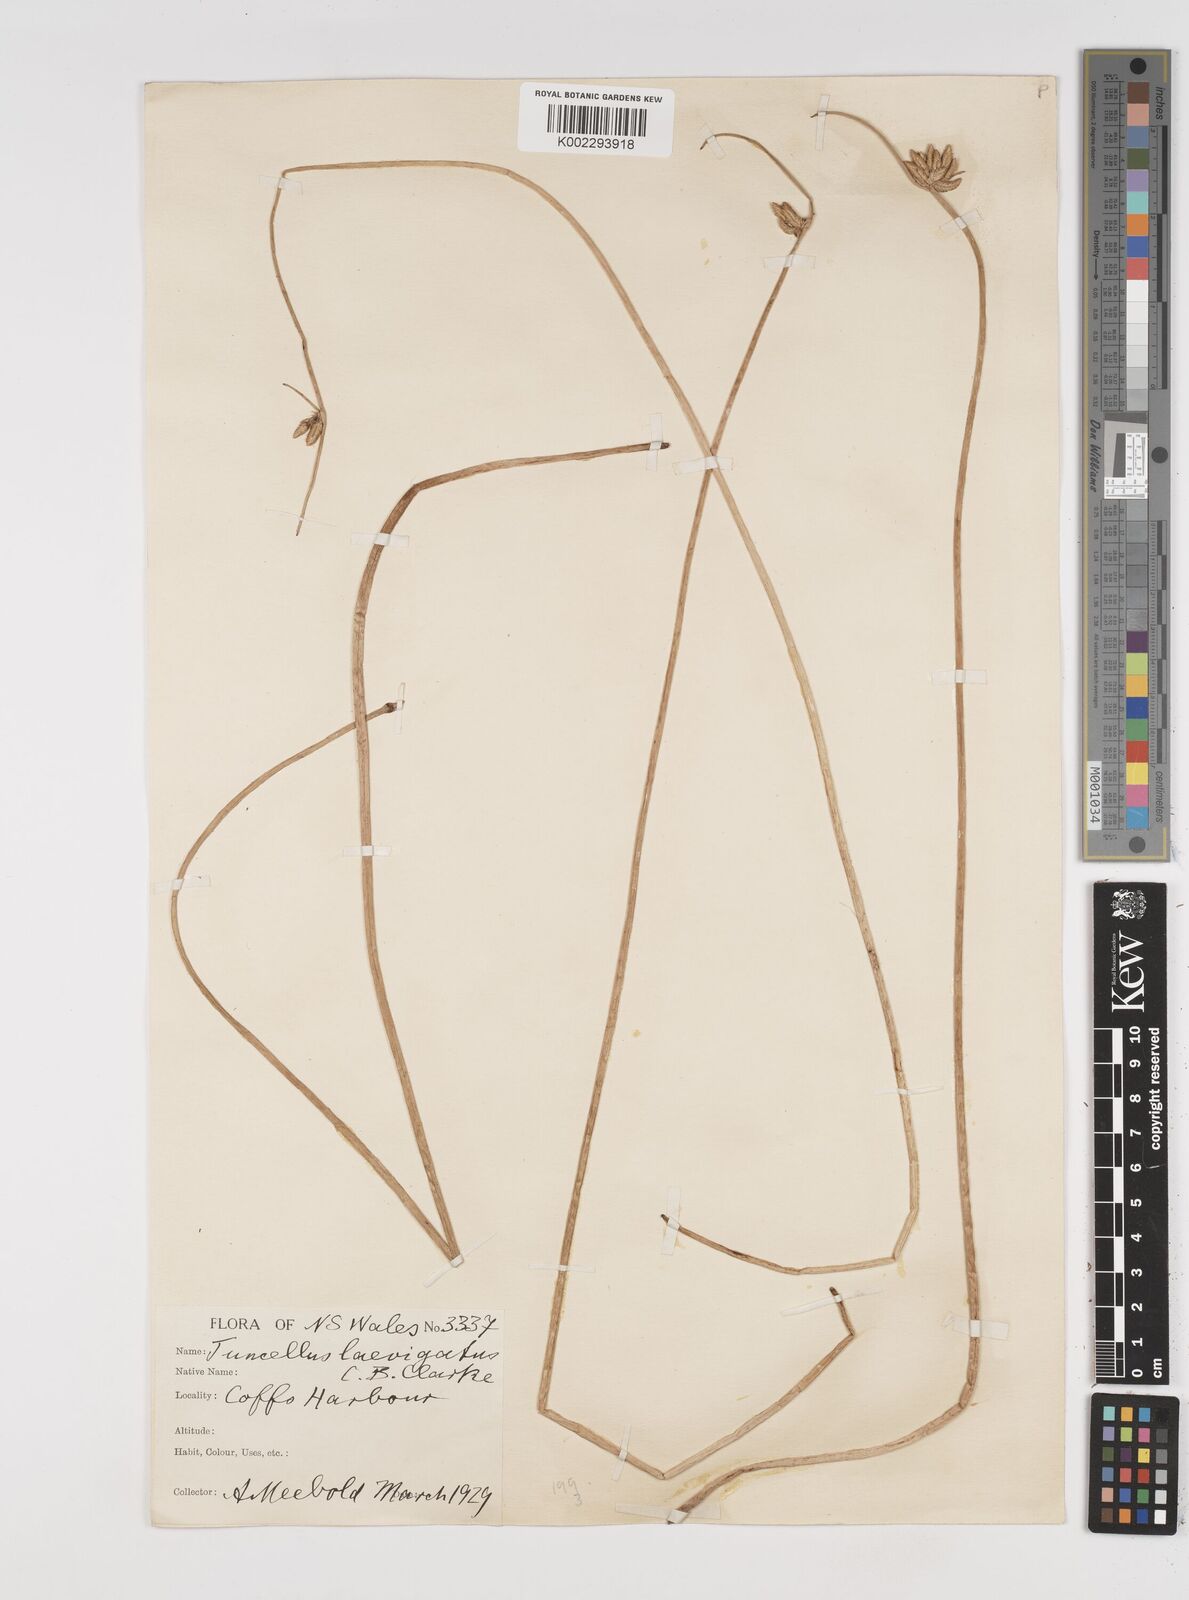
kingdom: Plantae
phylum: Tracheophyta
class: Liliopsida
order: Poales
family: Cyperaceae
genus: Cyperus
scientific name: Cyperus laevigatus
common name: Smooth flat sedge
